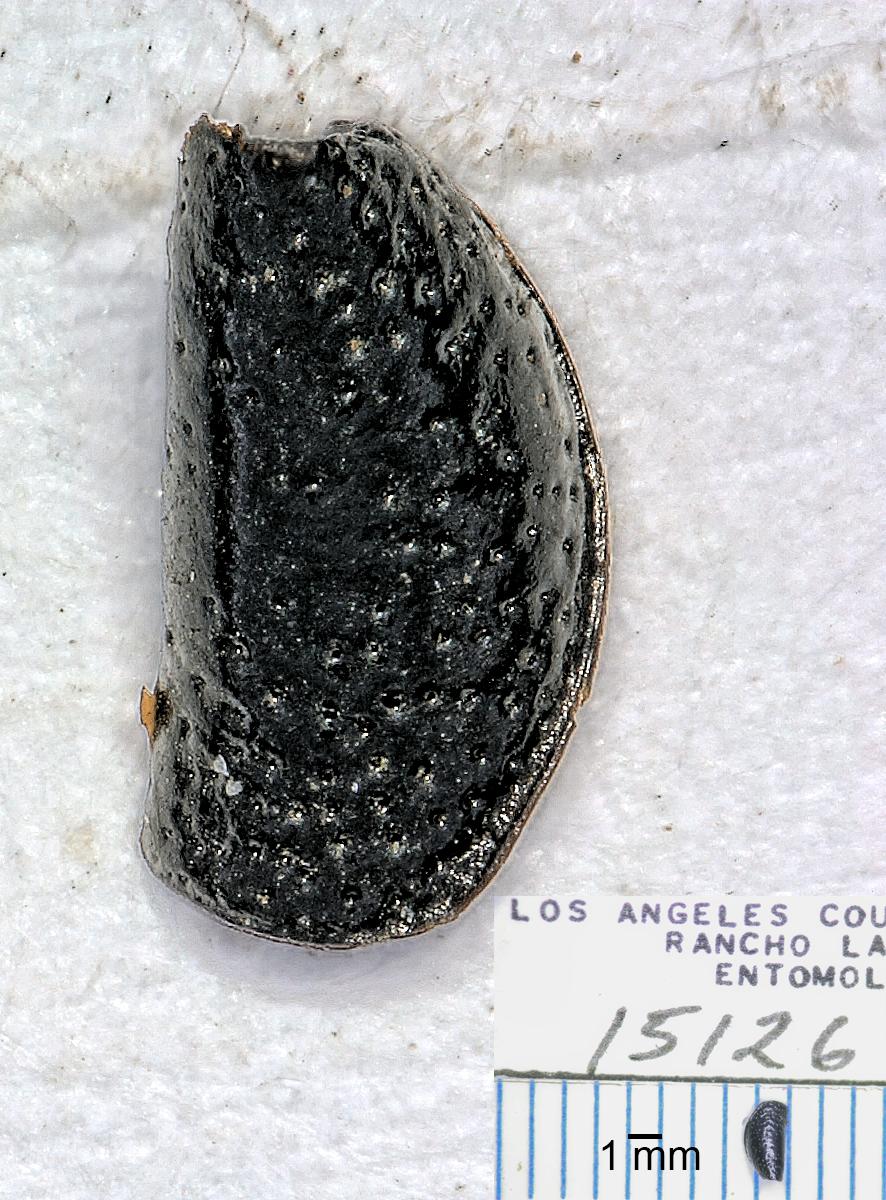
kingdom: Animalia
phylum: Arthropoda
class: Insecta
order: Coleoptera
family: Carabidae
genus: Dicheirus
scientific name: Dicheirus
